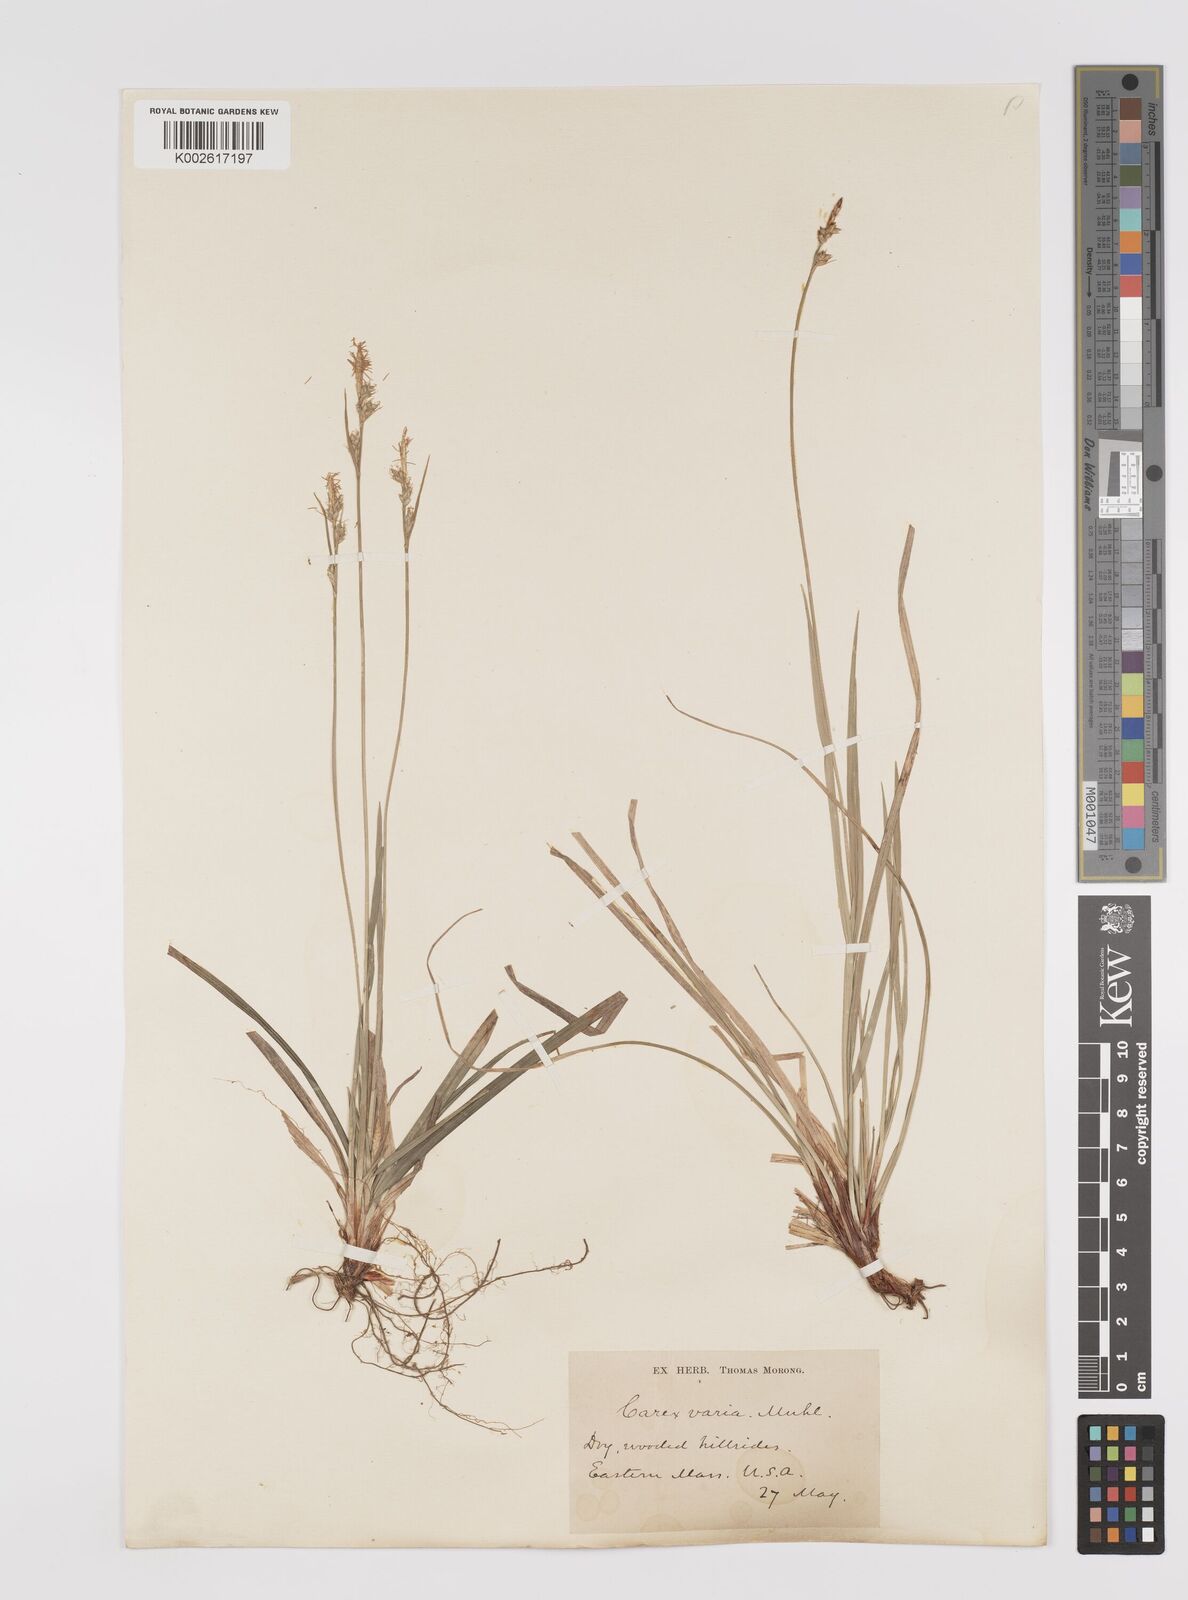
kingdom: Plantae
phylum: Tracheophyta
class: Liliopsida
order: Poales
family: Cyperaceae
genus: Carex
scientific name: Carex albicans
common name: Bellow-beaked sedge
